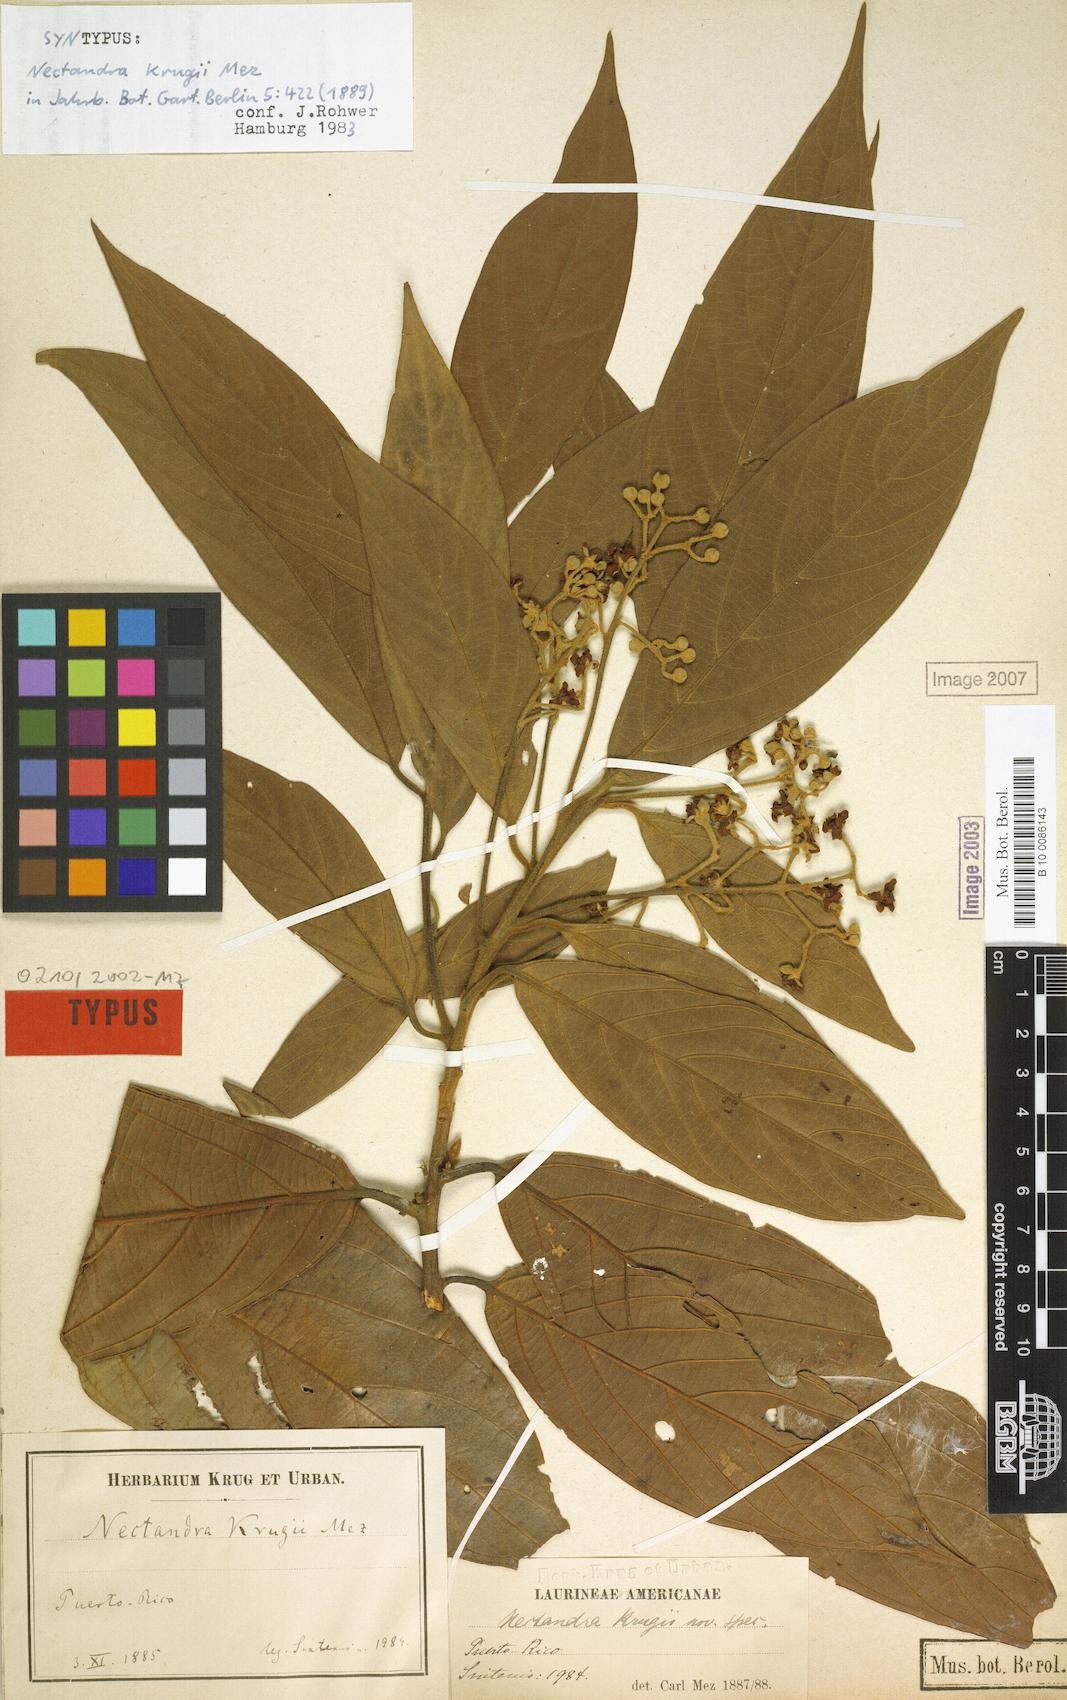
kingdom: Plantae
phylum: Tracheophyta
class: Magnoliopsida
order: Laurales
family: Lauraceae
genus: Nectandra
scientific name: Nectandra krugii
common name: Black sweetwood
